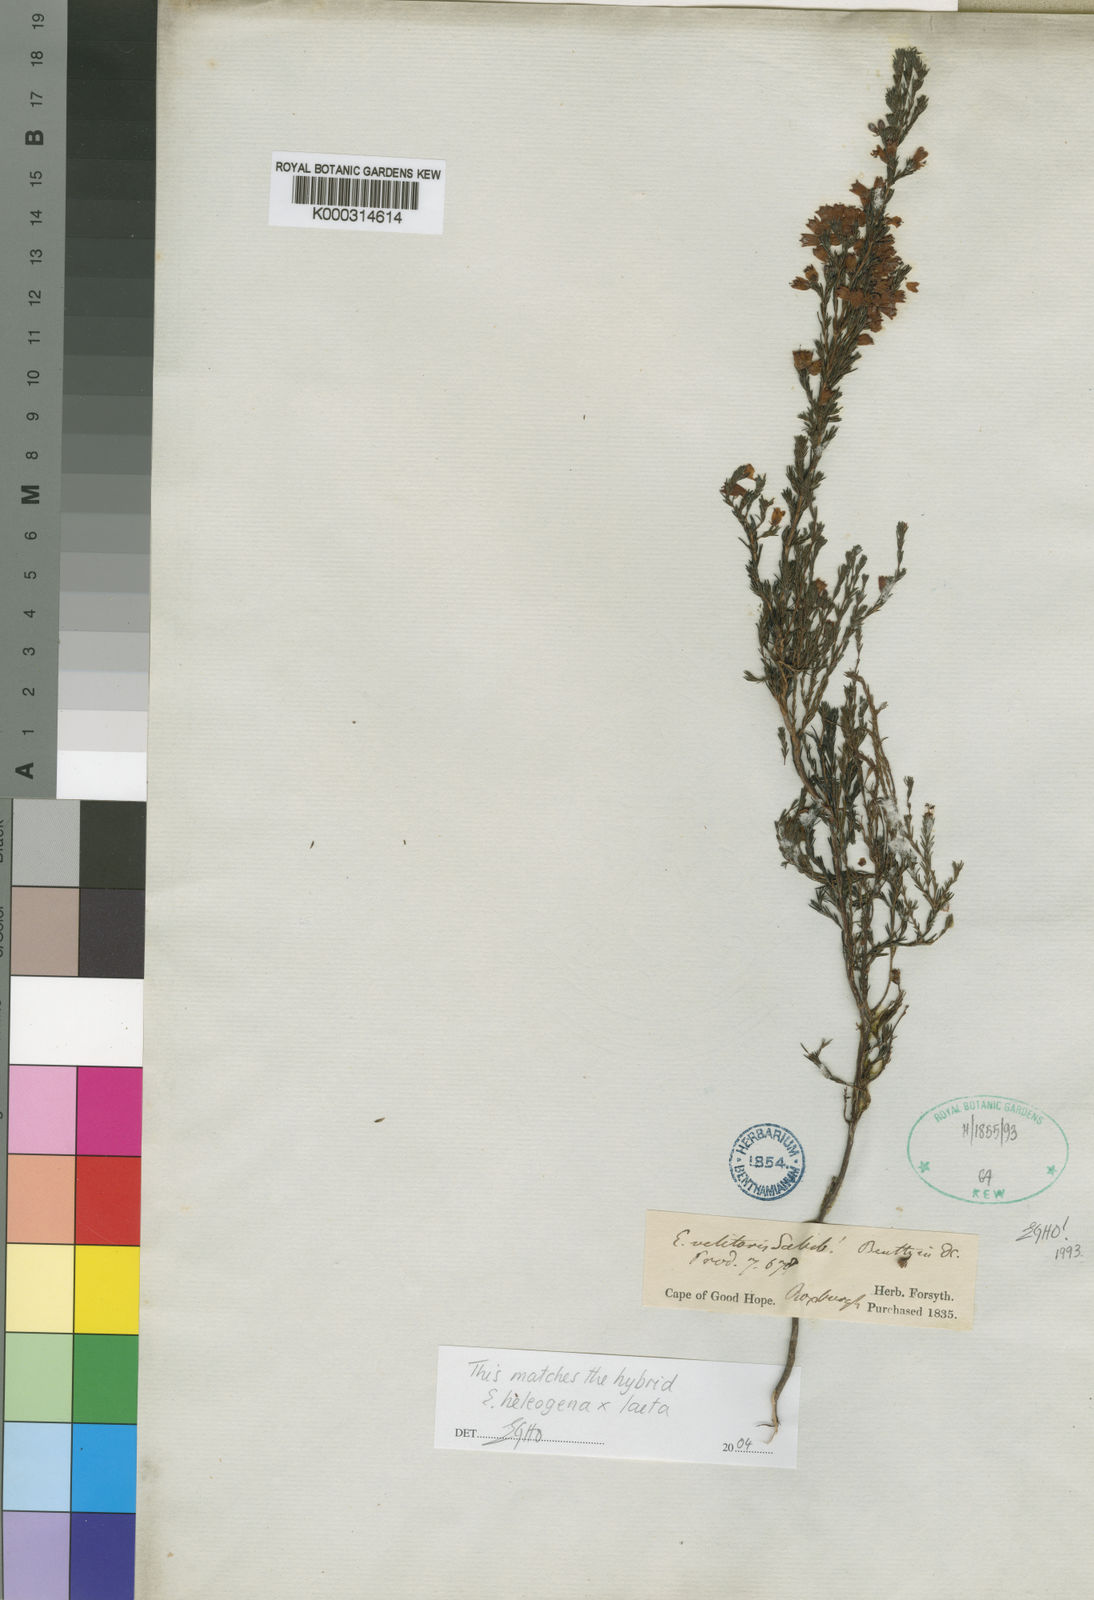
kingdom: Plantae
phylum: Tracheophyta
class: Magnoliopsida
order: Ericales
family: Ericaceae
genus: Erica
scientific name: Erica velitaris
